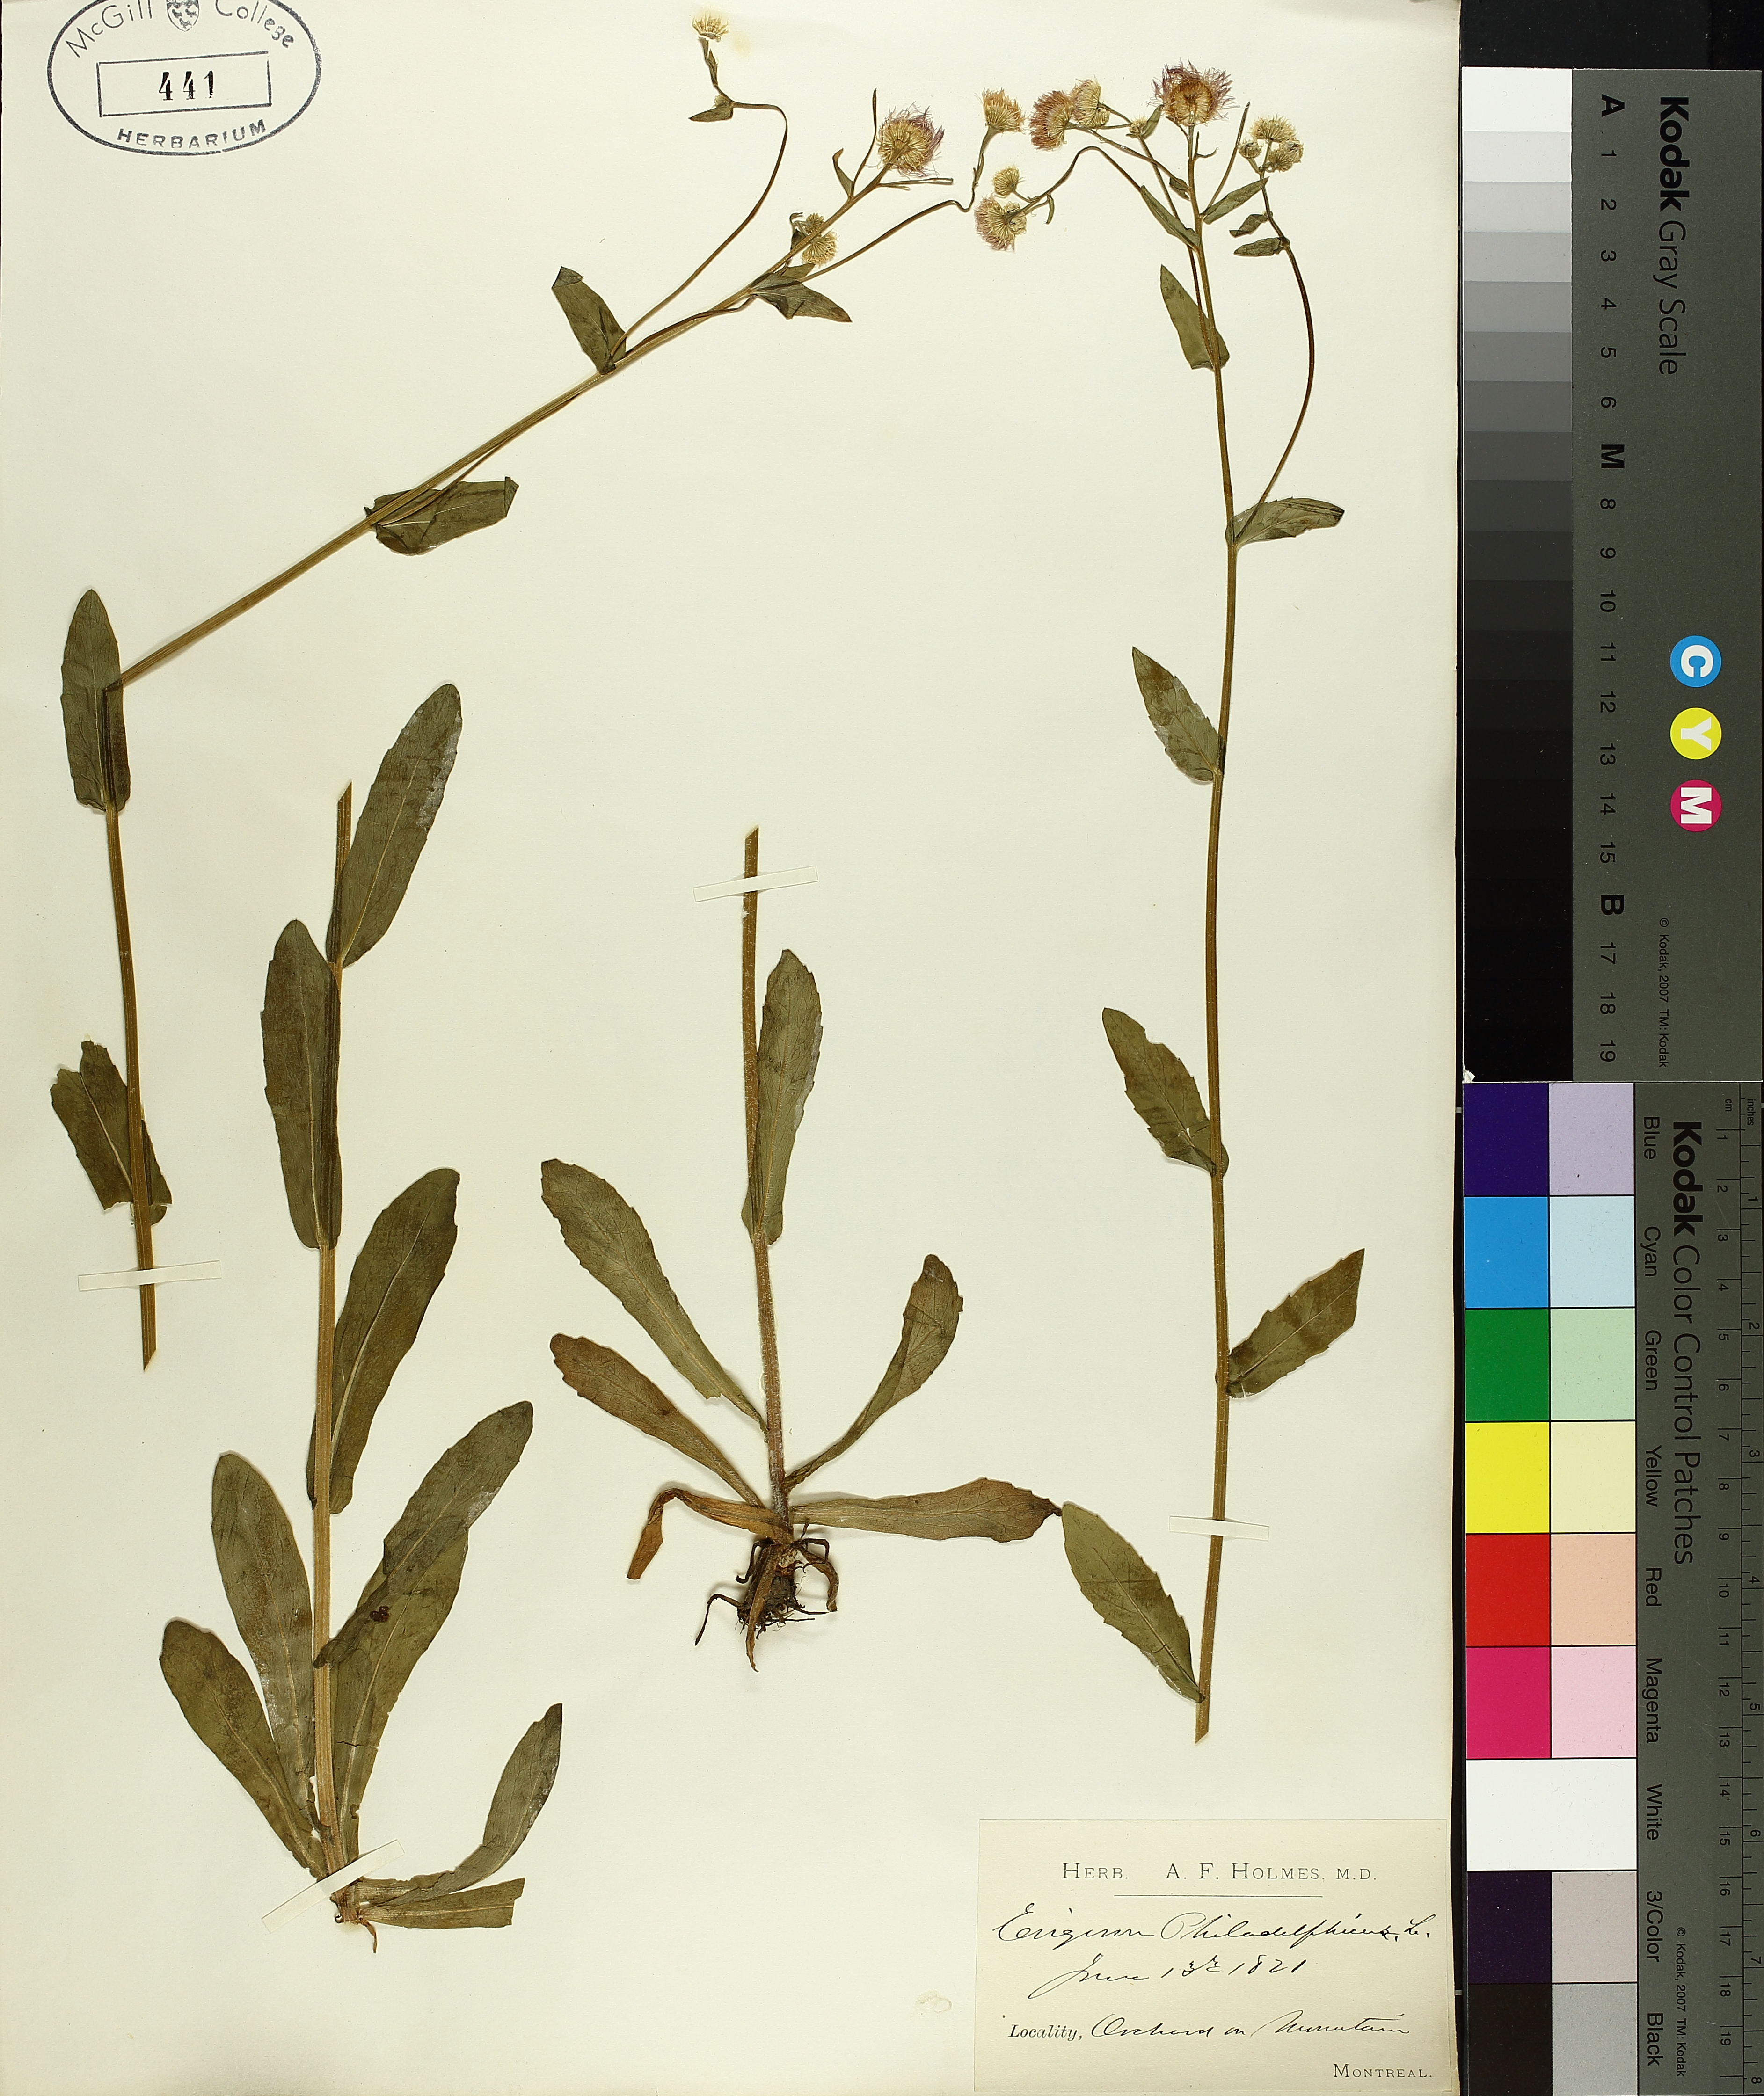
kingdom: Plantae
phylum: Tracheophyta
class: Magnoliopsida
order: Asterales
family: Asteraceae
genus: Erigeron
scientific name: Erigeron philadelphicus
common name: Robin's-plantain
